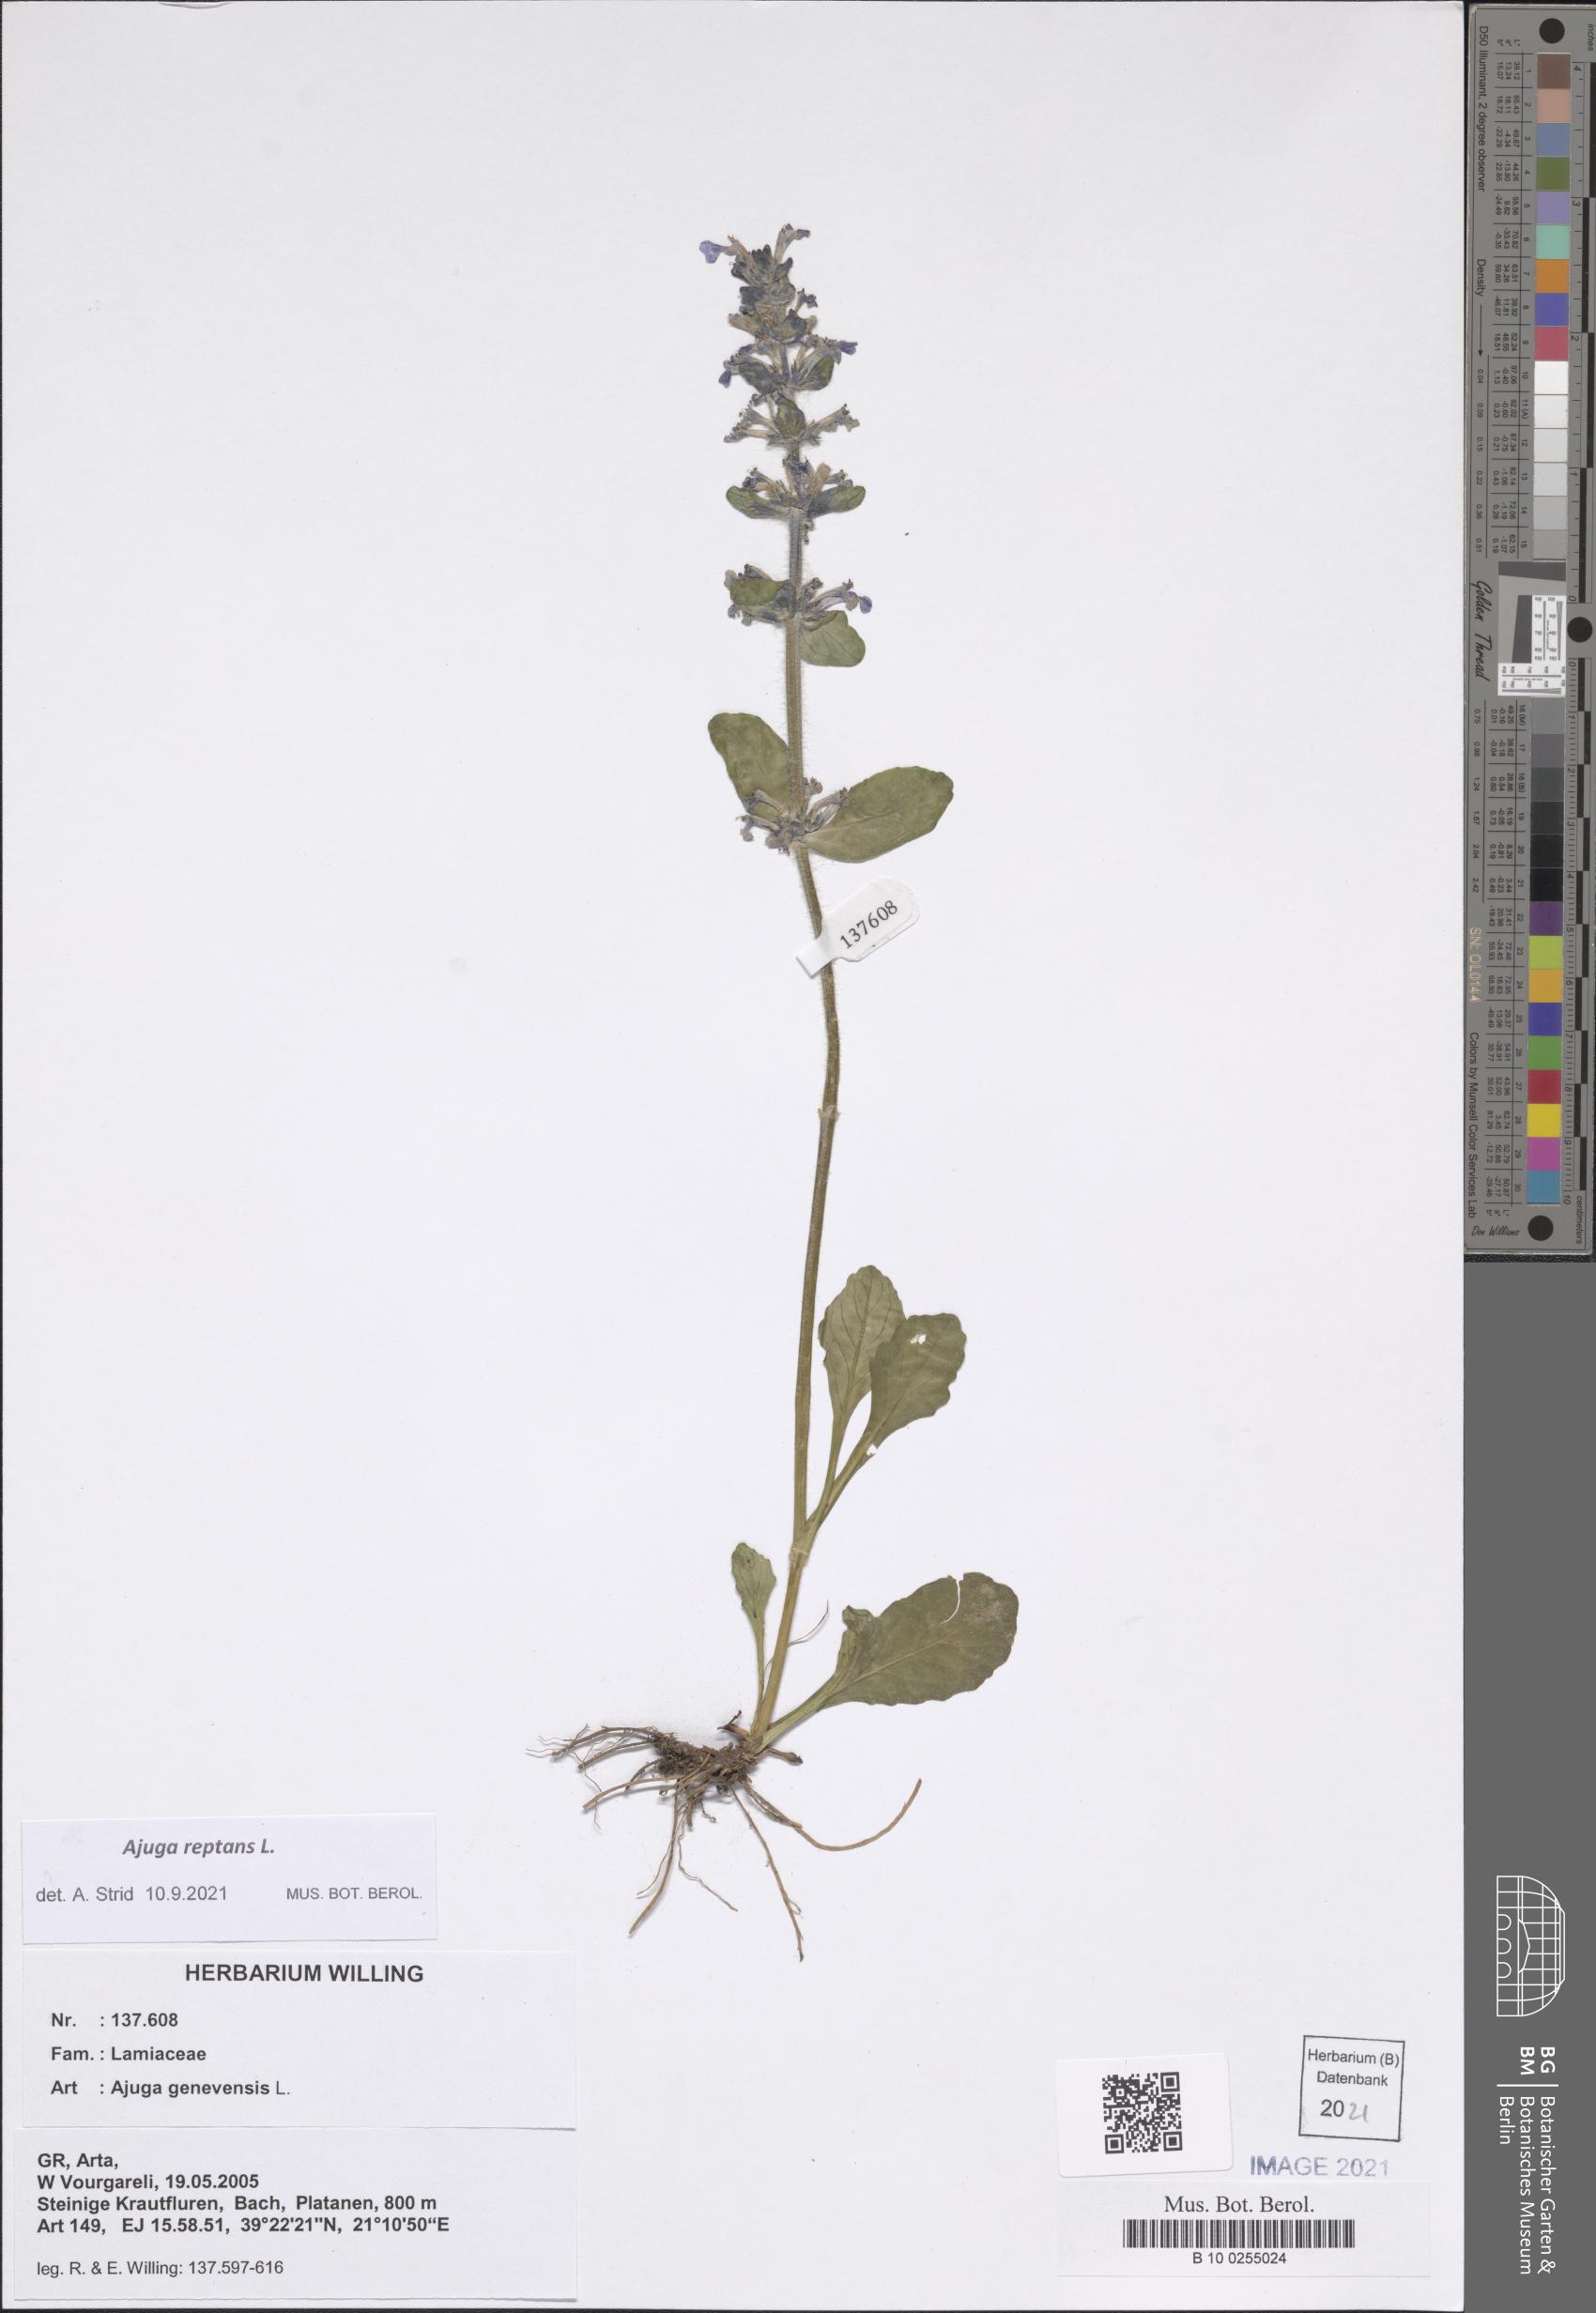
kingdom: Plantae
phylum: Tracheophyta
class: Magnoliopsida
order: Lamiales
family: Lamiaceae
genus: Ajuga
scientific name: Ajuga reptans
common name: Bugle
